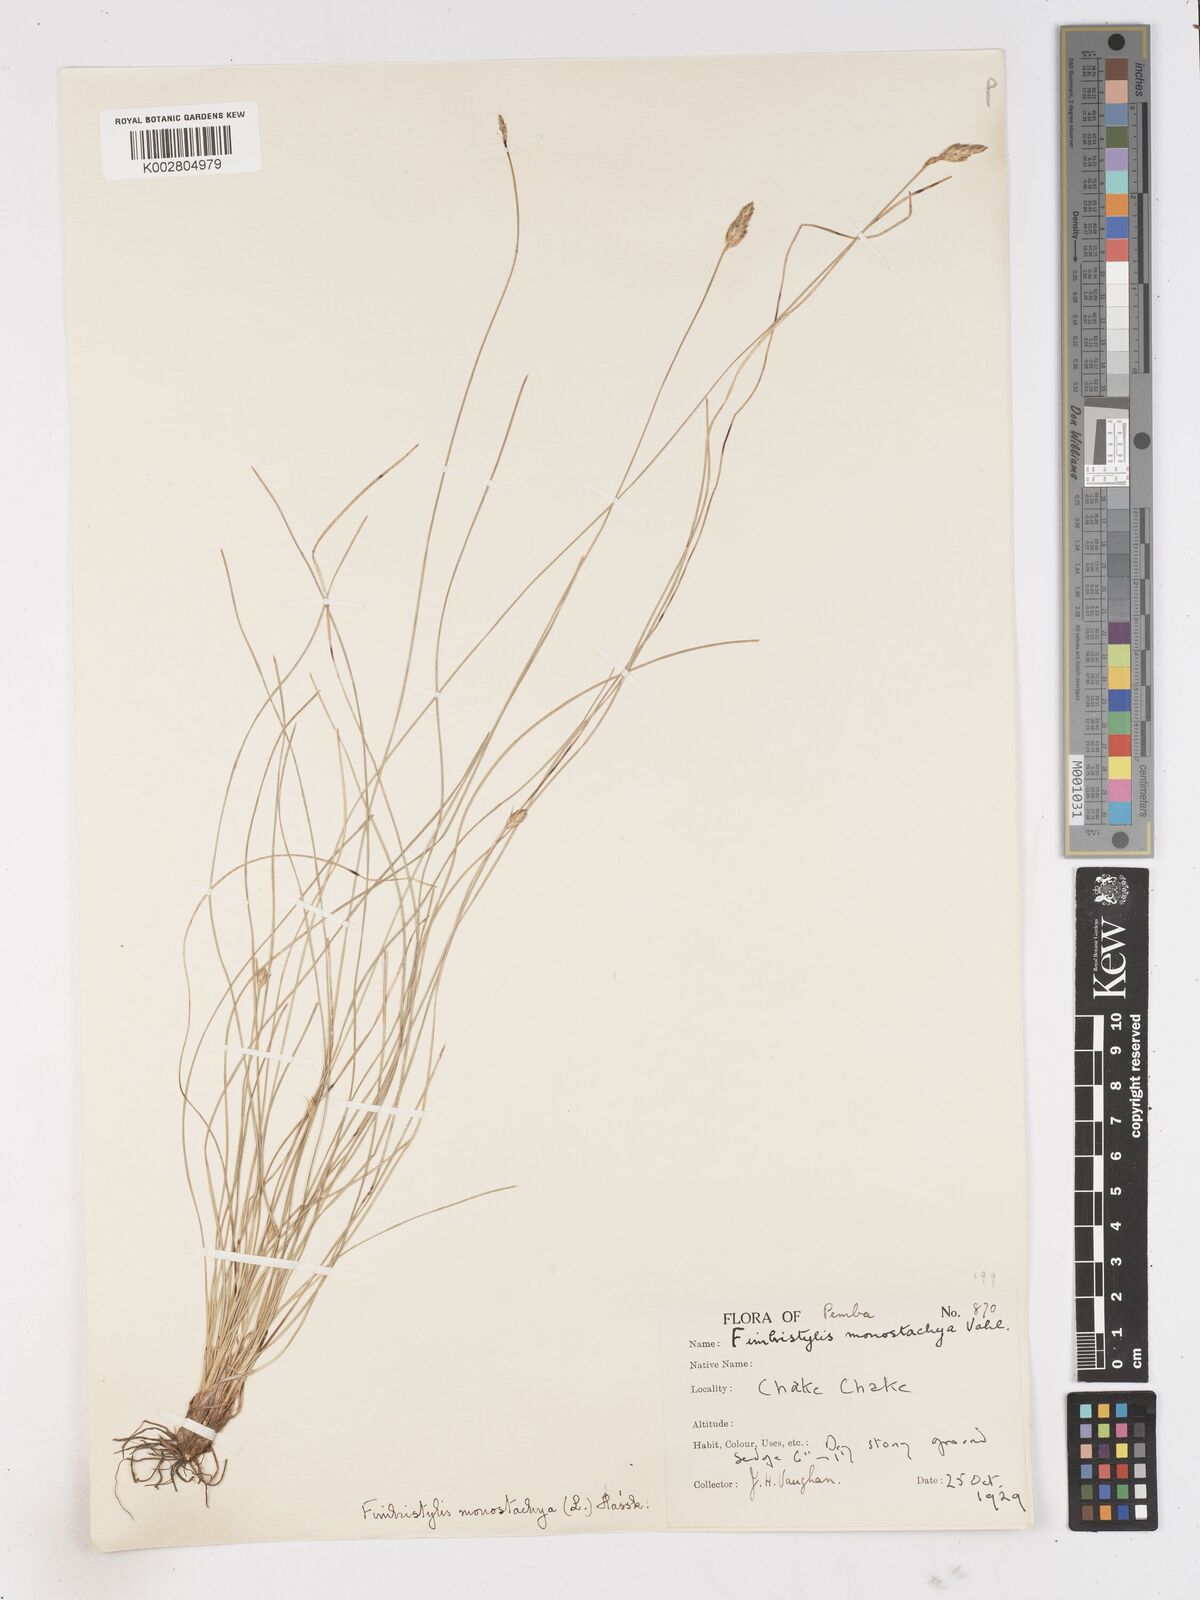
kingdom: Plantae
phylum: Tracheophyta
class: Liliopsida
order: Poales
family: Cyperaceae
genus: Abildgaardia
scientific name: Abildgaardia ovata
